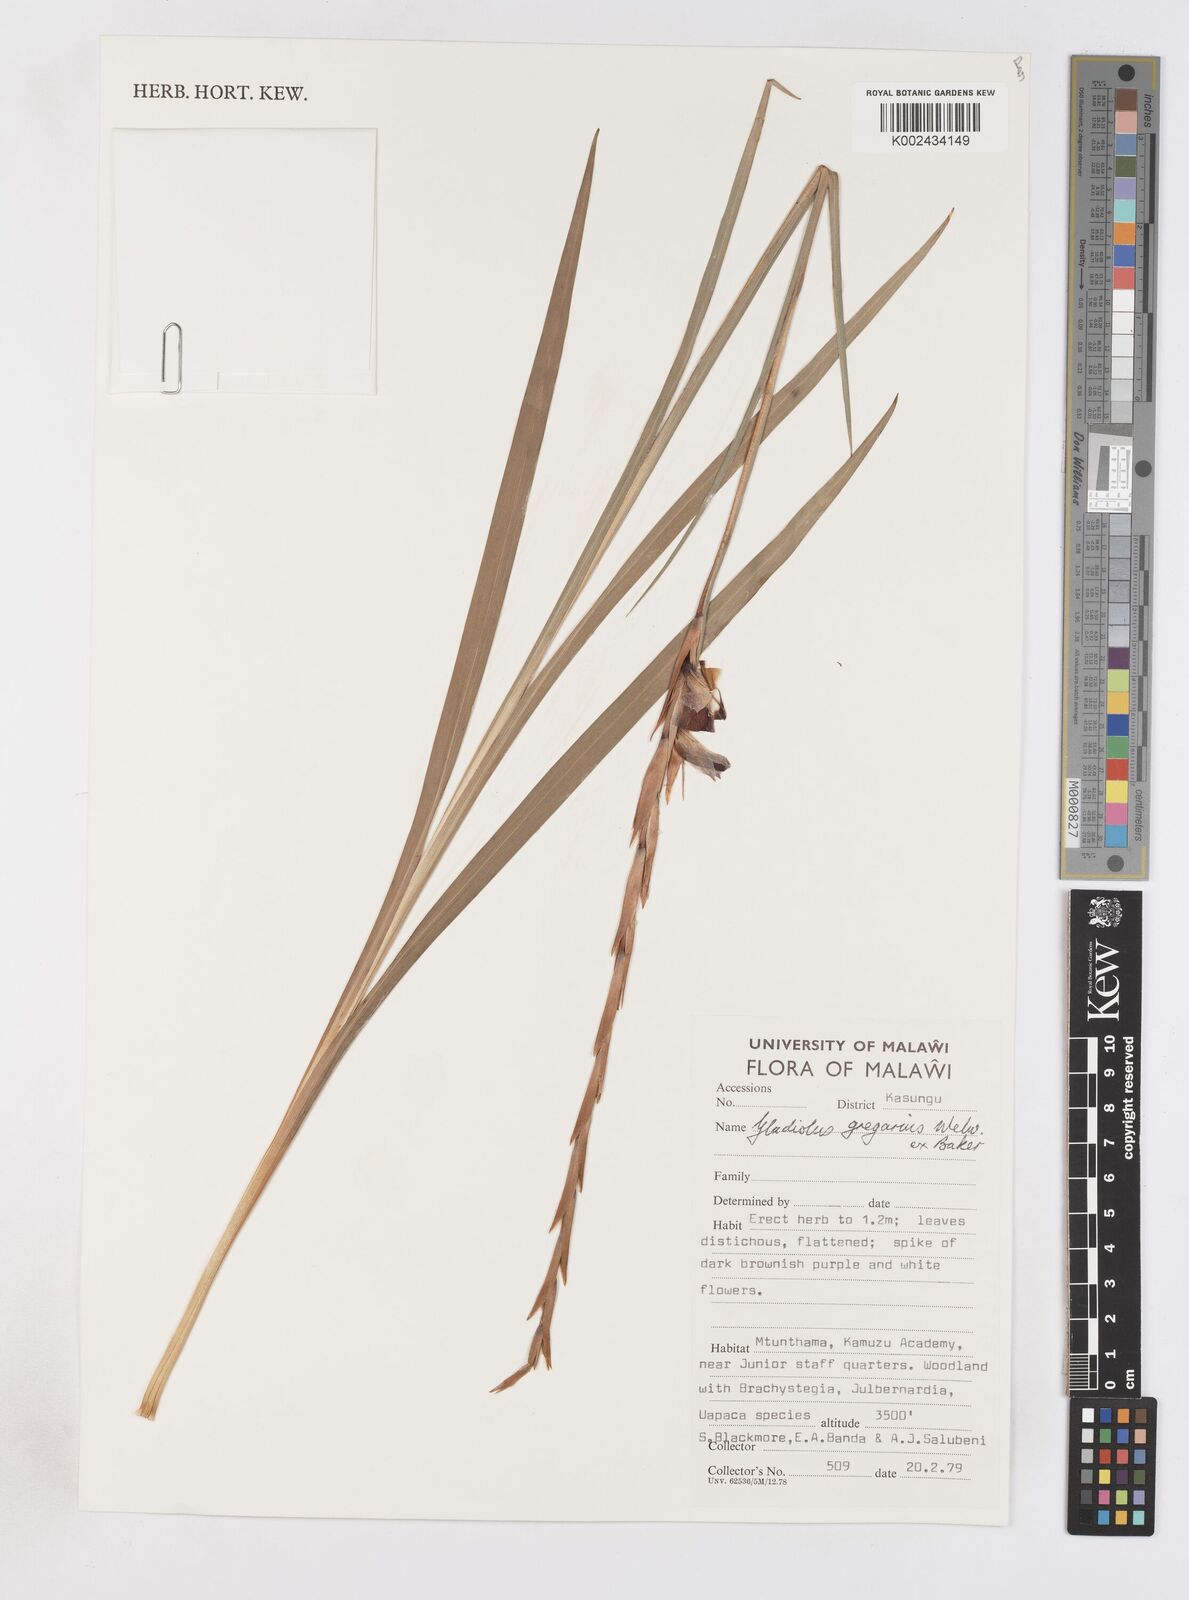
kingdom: Plantae
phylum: Tracheophyta
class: Liliopsida
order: Asparagales
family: Iridaceae
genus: Gladiolus
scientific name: Gladiolus gregarius
